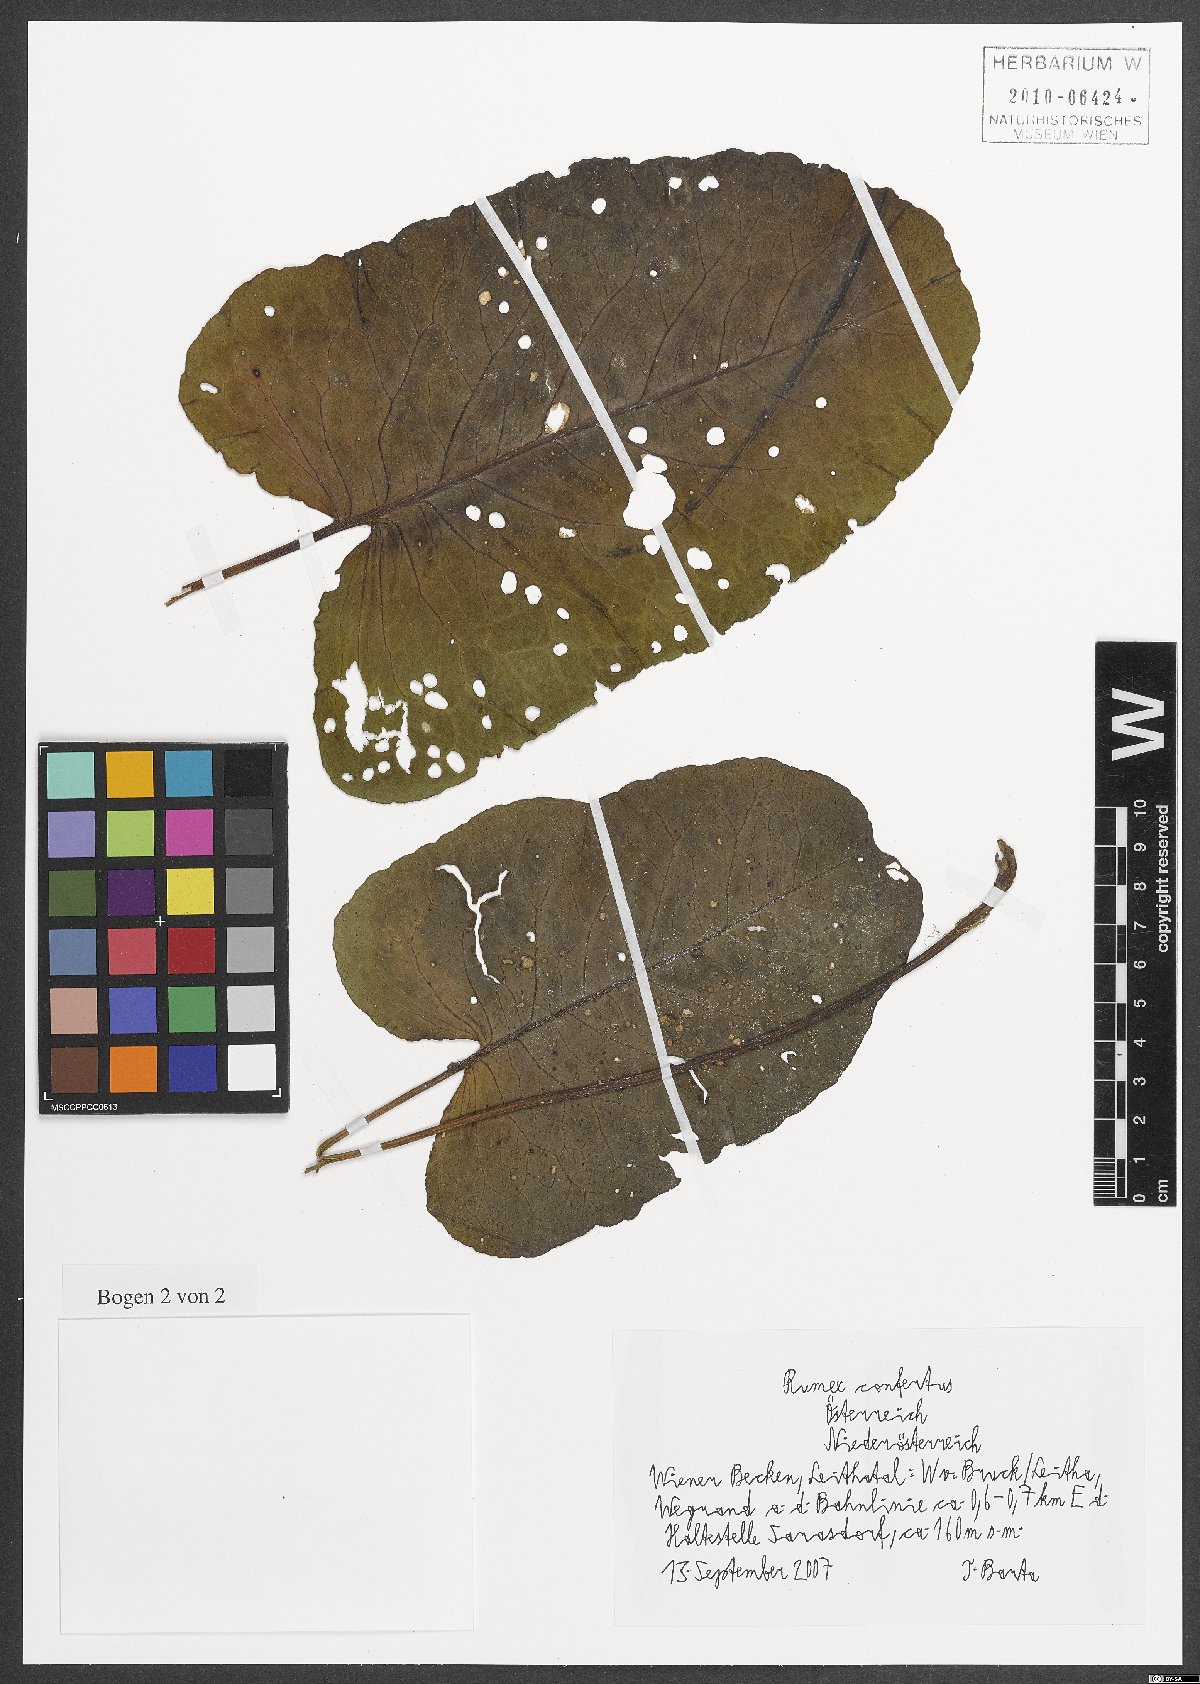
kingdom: Plantae
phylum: Tracheophyta
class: Magnoliopsida
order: Caryophyllales
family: Polygonaceae
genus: Rumex
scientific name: Rumex confertus
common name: Russian dock
